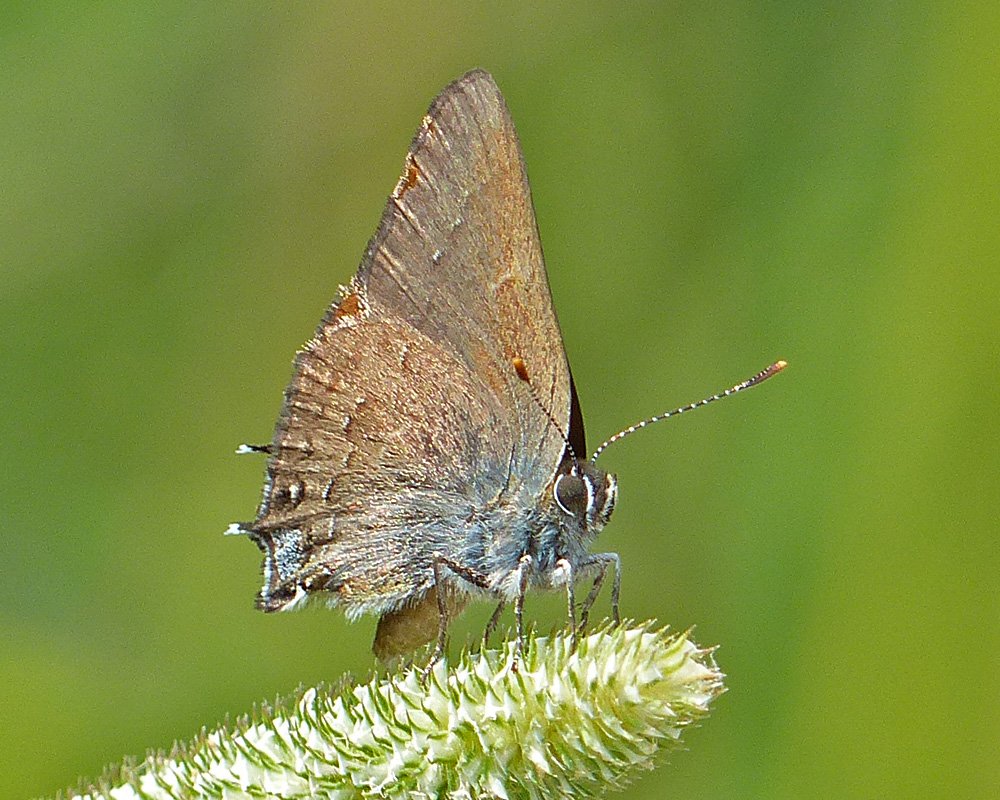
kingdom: Animalia
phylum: Arthropoda
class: Insecta
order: Lepidoptera
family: Lycaenidae
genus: Strymon
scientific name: Strymon saepium
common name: Hedgerow Hairstreak
